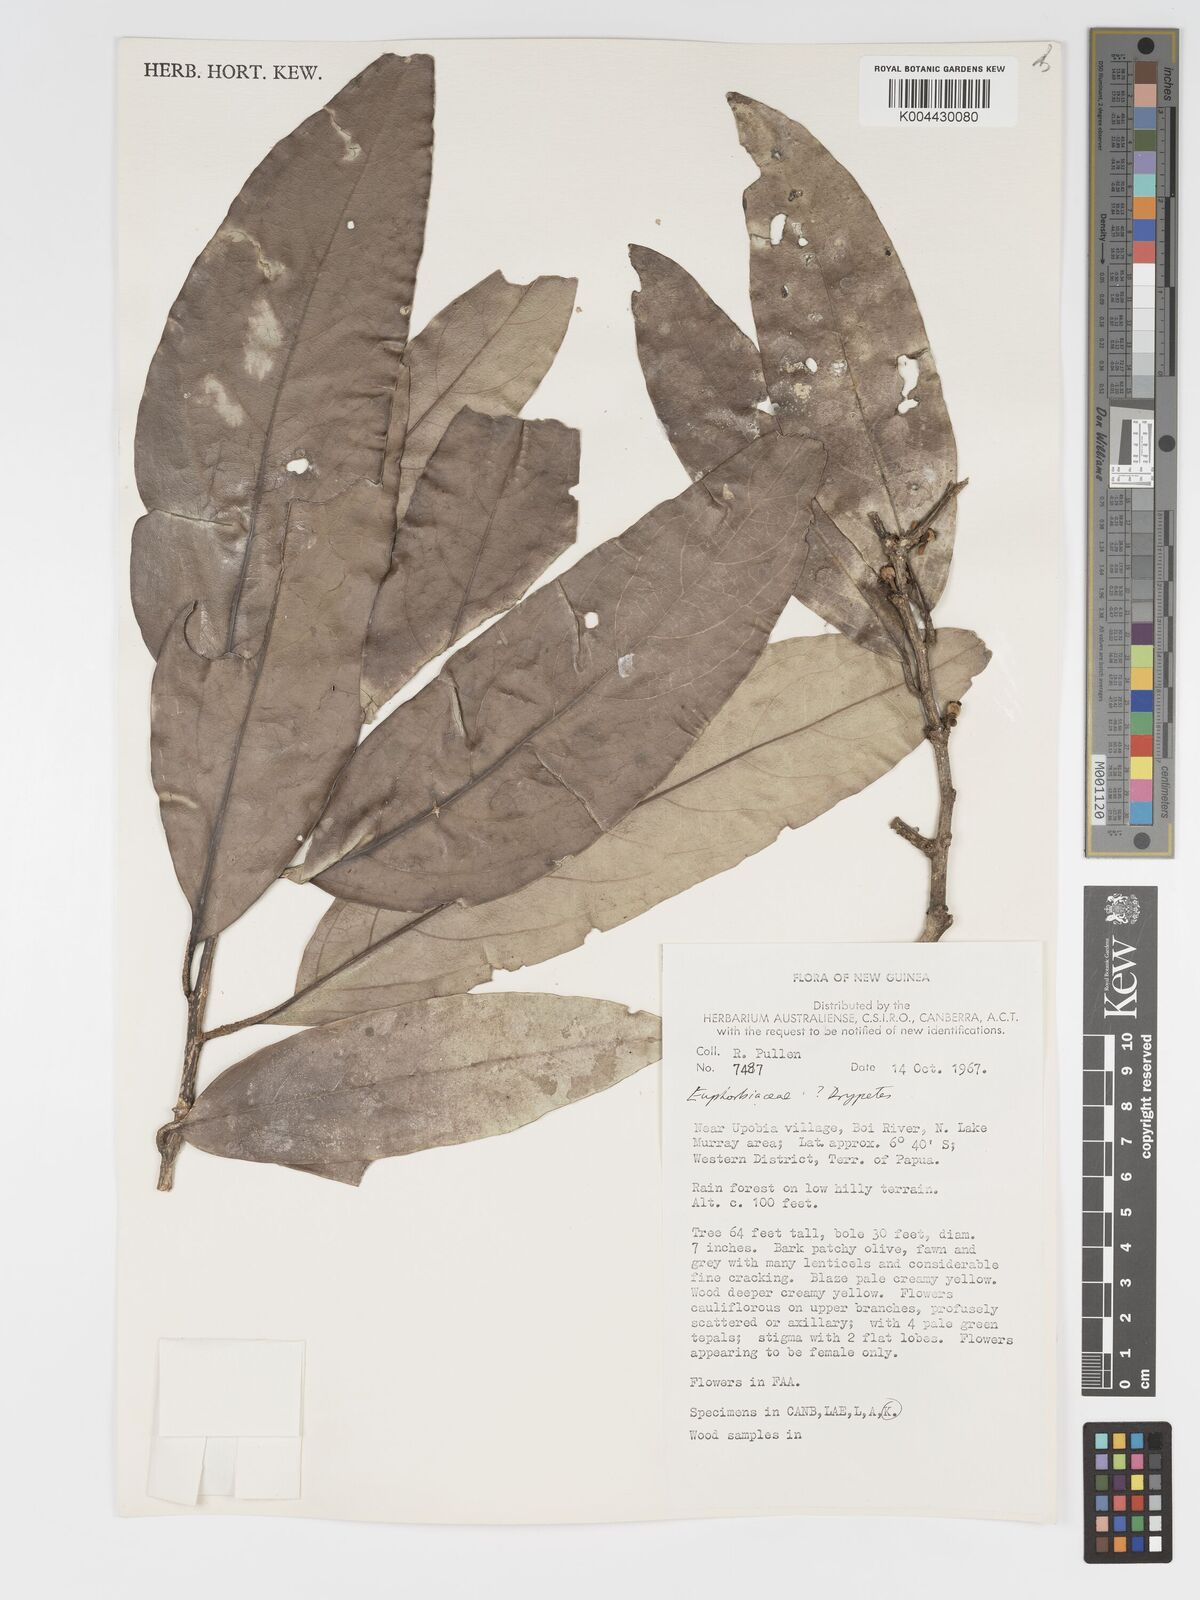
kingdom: Plantae
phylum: Tracheophyta
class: Magnoliopsida
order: Malpighiales
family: Putranjivaceae
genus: Drypetes
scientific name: Drypetes longifolia
